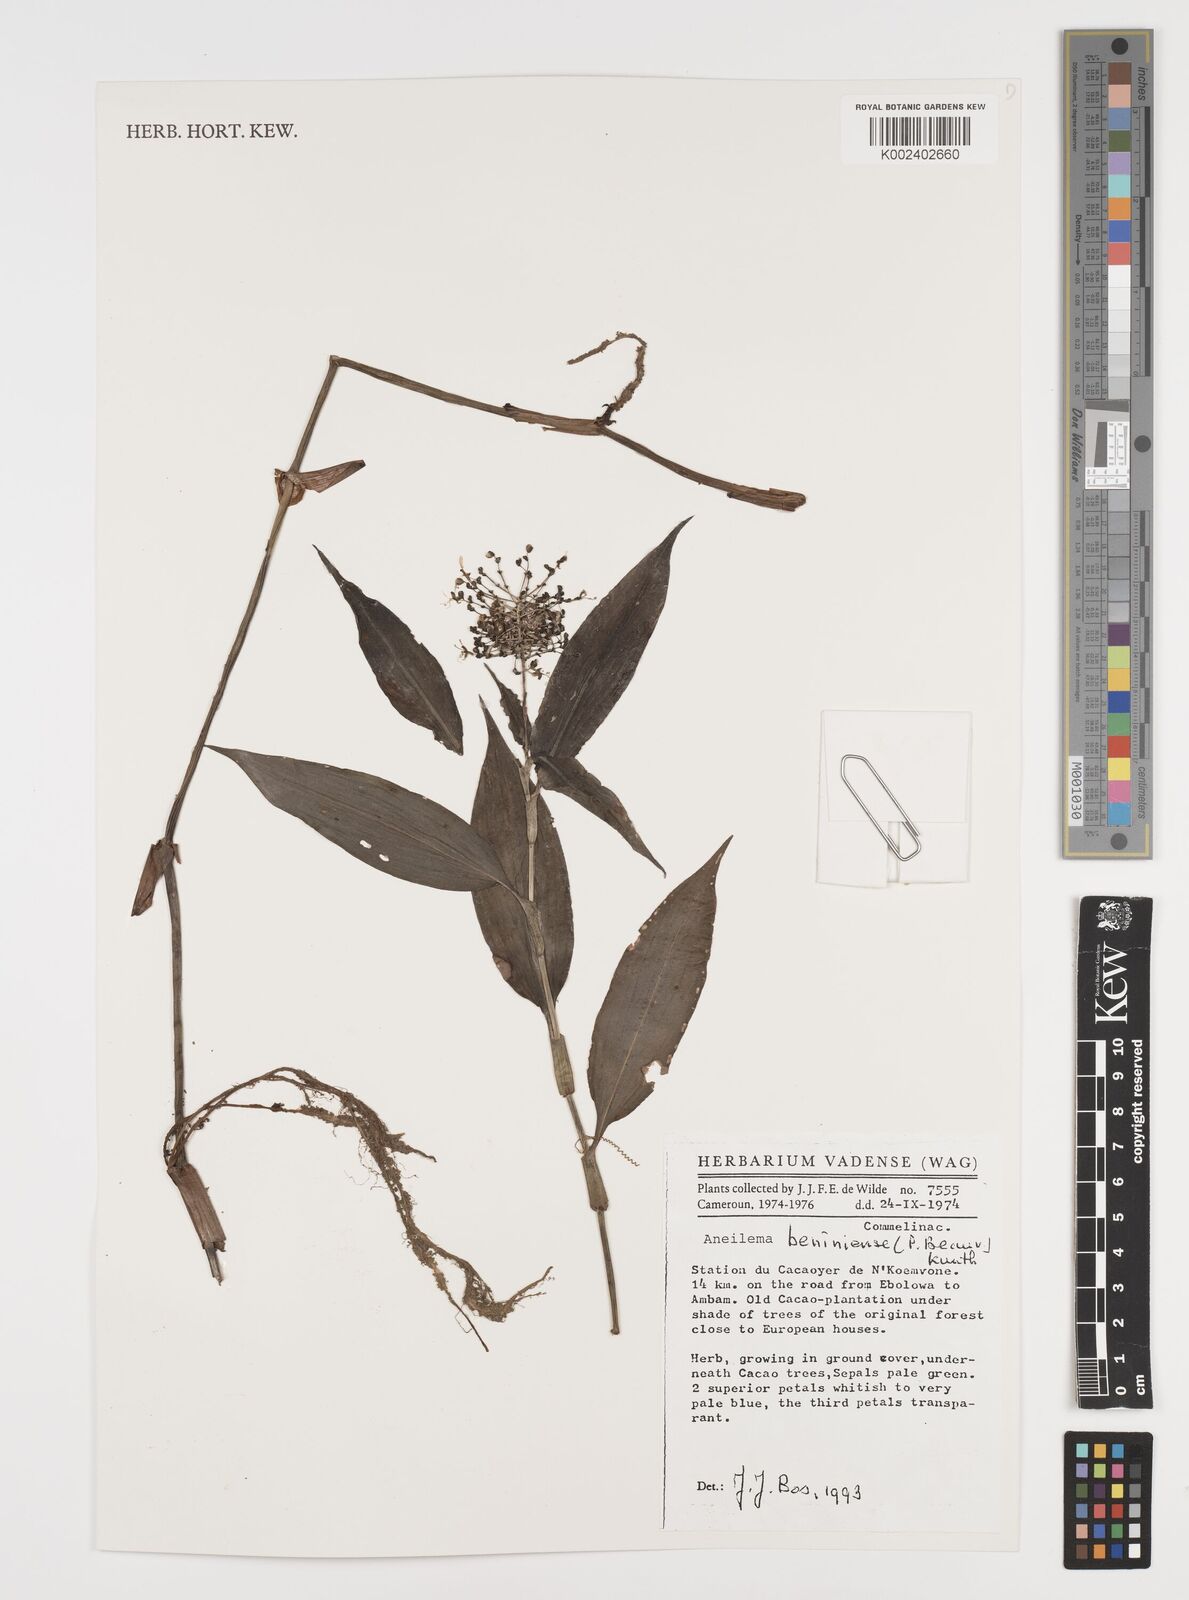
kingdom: Plantae
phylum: Tracheophyta
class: Liliopsida
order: Commelinales
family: Commelinaceae
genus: Aneilema
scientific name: Aneilema beniniense
